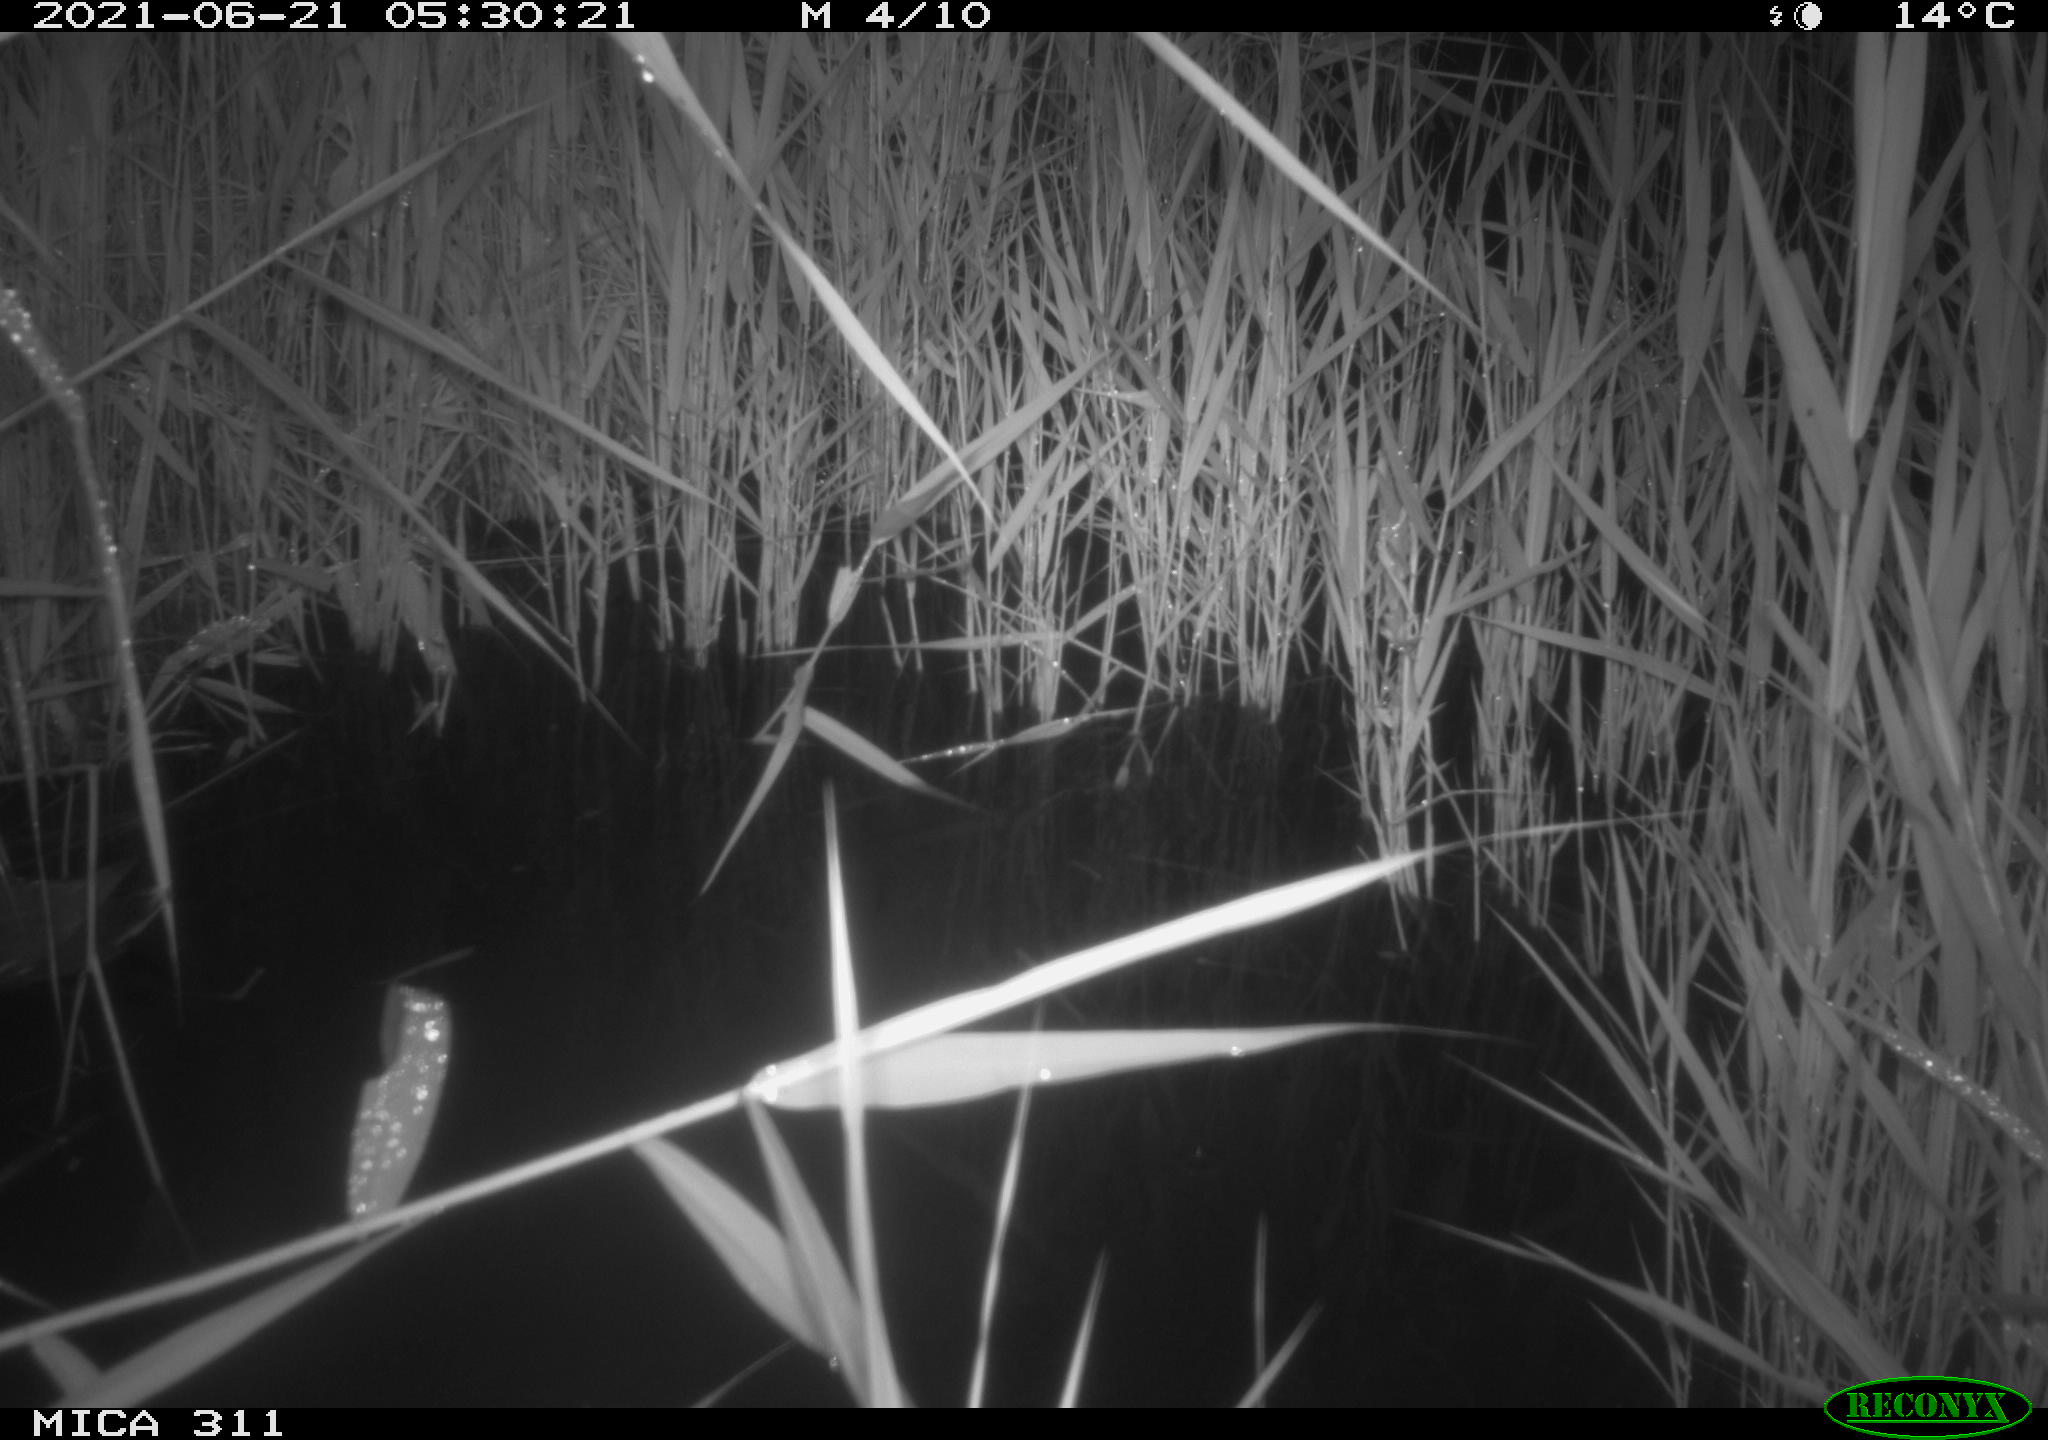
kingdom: Animalia
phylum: Chordata
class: Aves
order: Gruiformes
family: Rallidae
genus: Gallinula
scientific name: Gallinula chloropus
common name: Common moorhen
